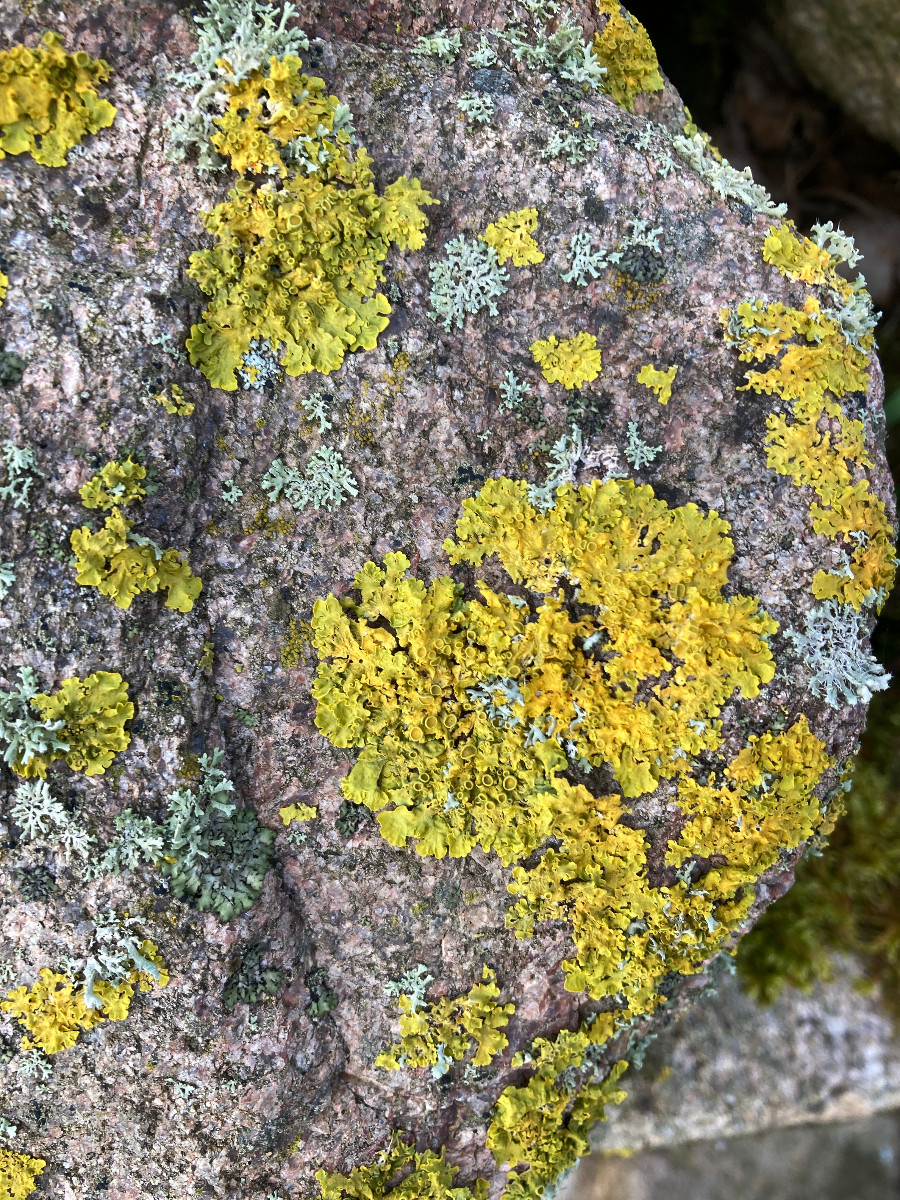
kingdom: Fungi
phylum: Ascomycota
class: Lecanoromycetes
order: Teloschistales
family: Teloschistaceae
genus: Xanthoria
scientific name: Xanthoria parietina
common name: almindelig væggelav
